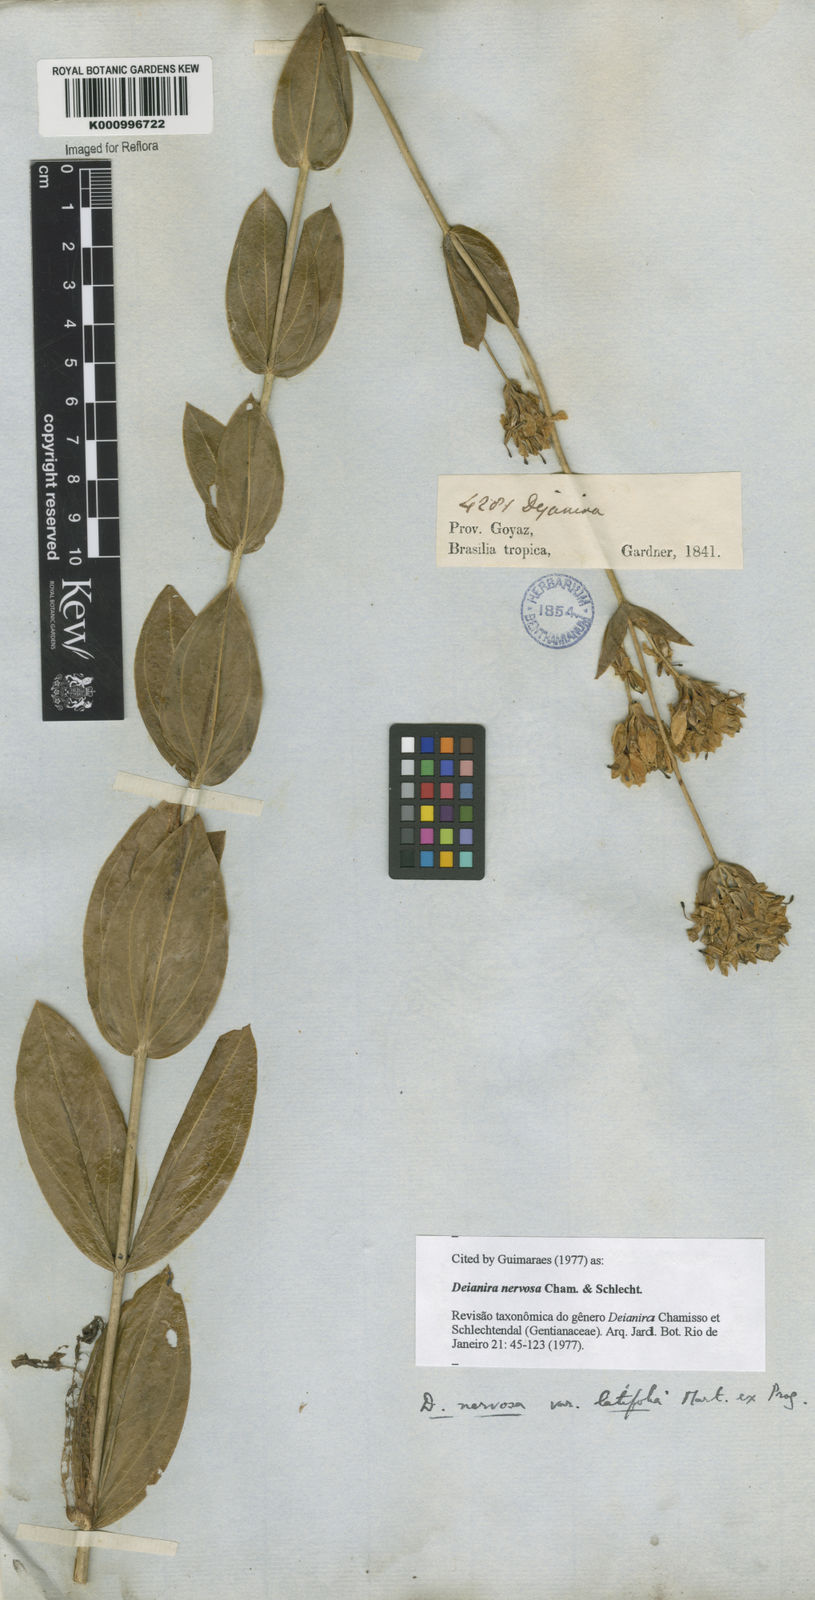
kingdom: Plantae
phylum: Tracheophyta
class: Magnoliopsida
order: Gentianales
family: Gentianaceae
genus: Deianira
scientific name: Deianira nervosa
